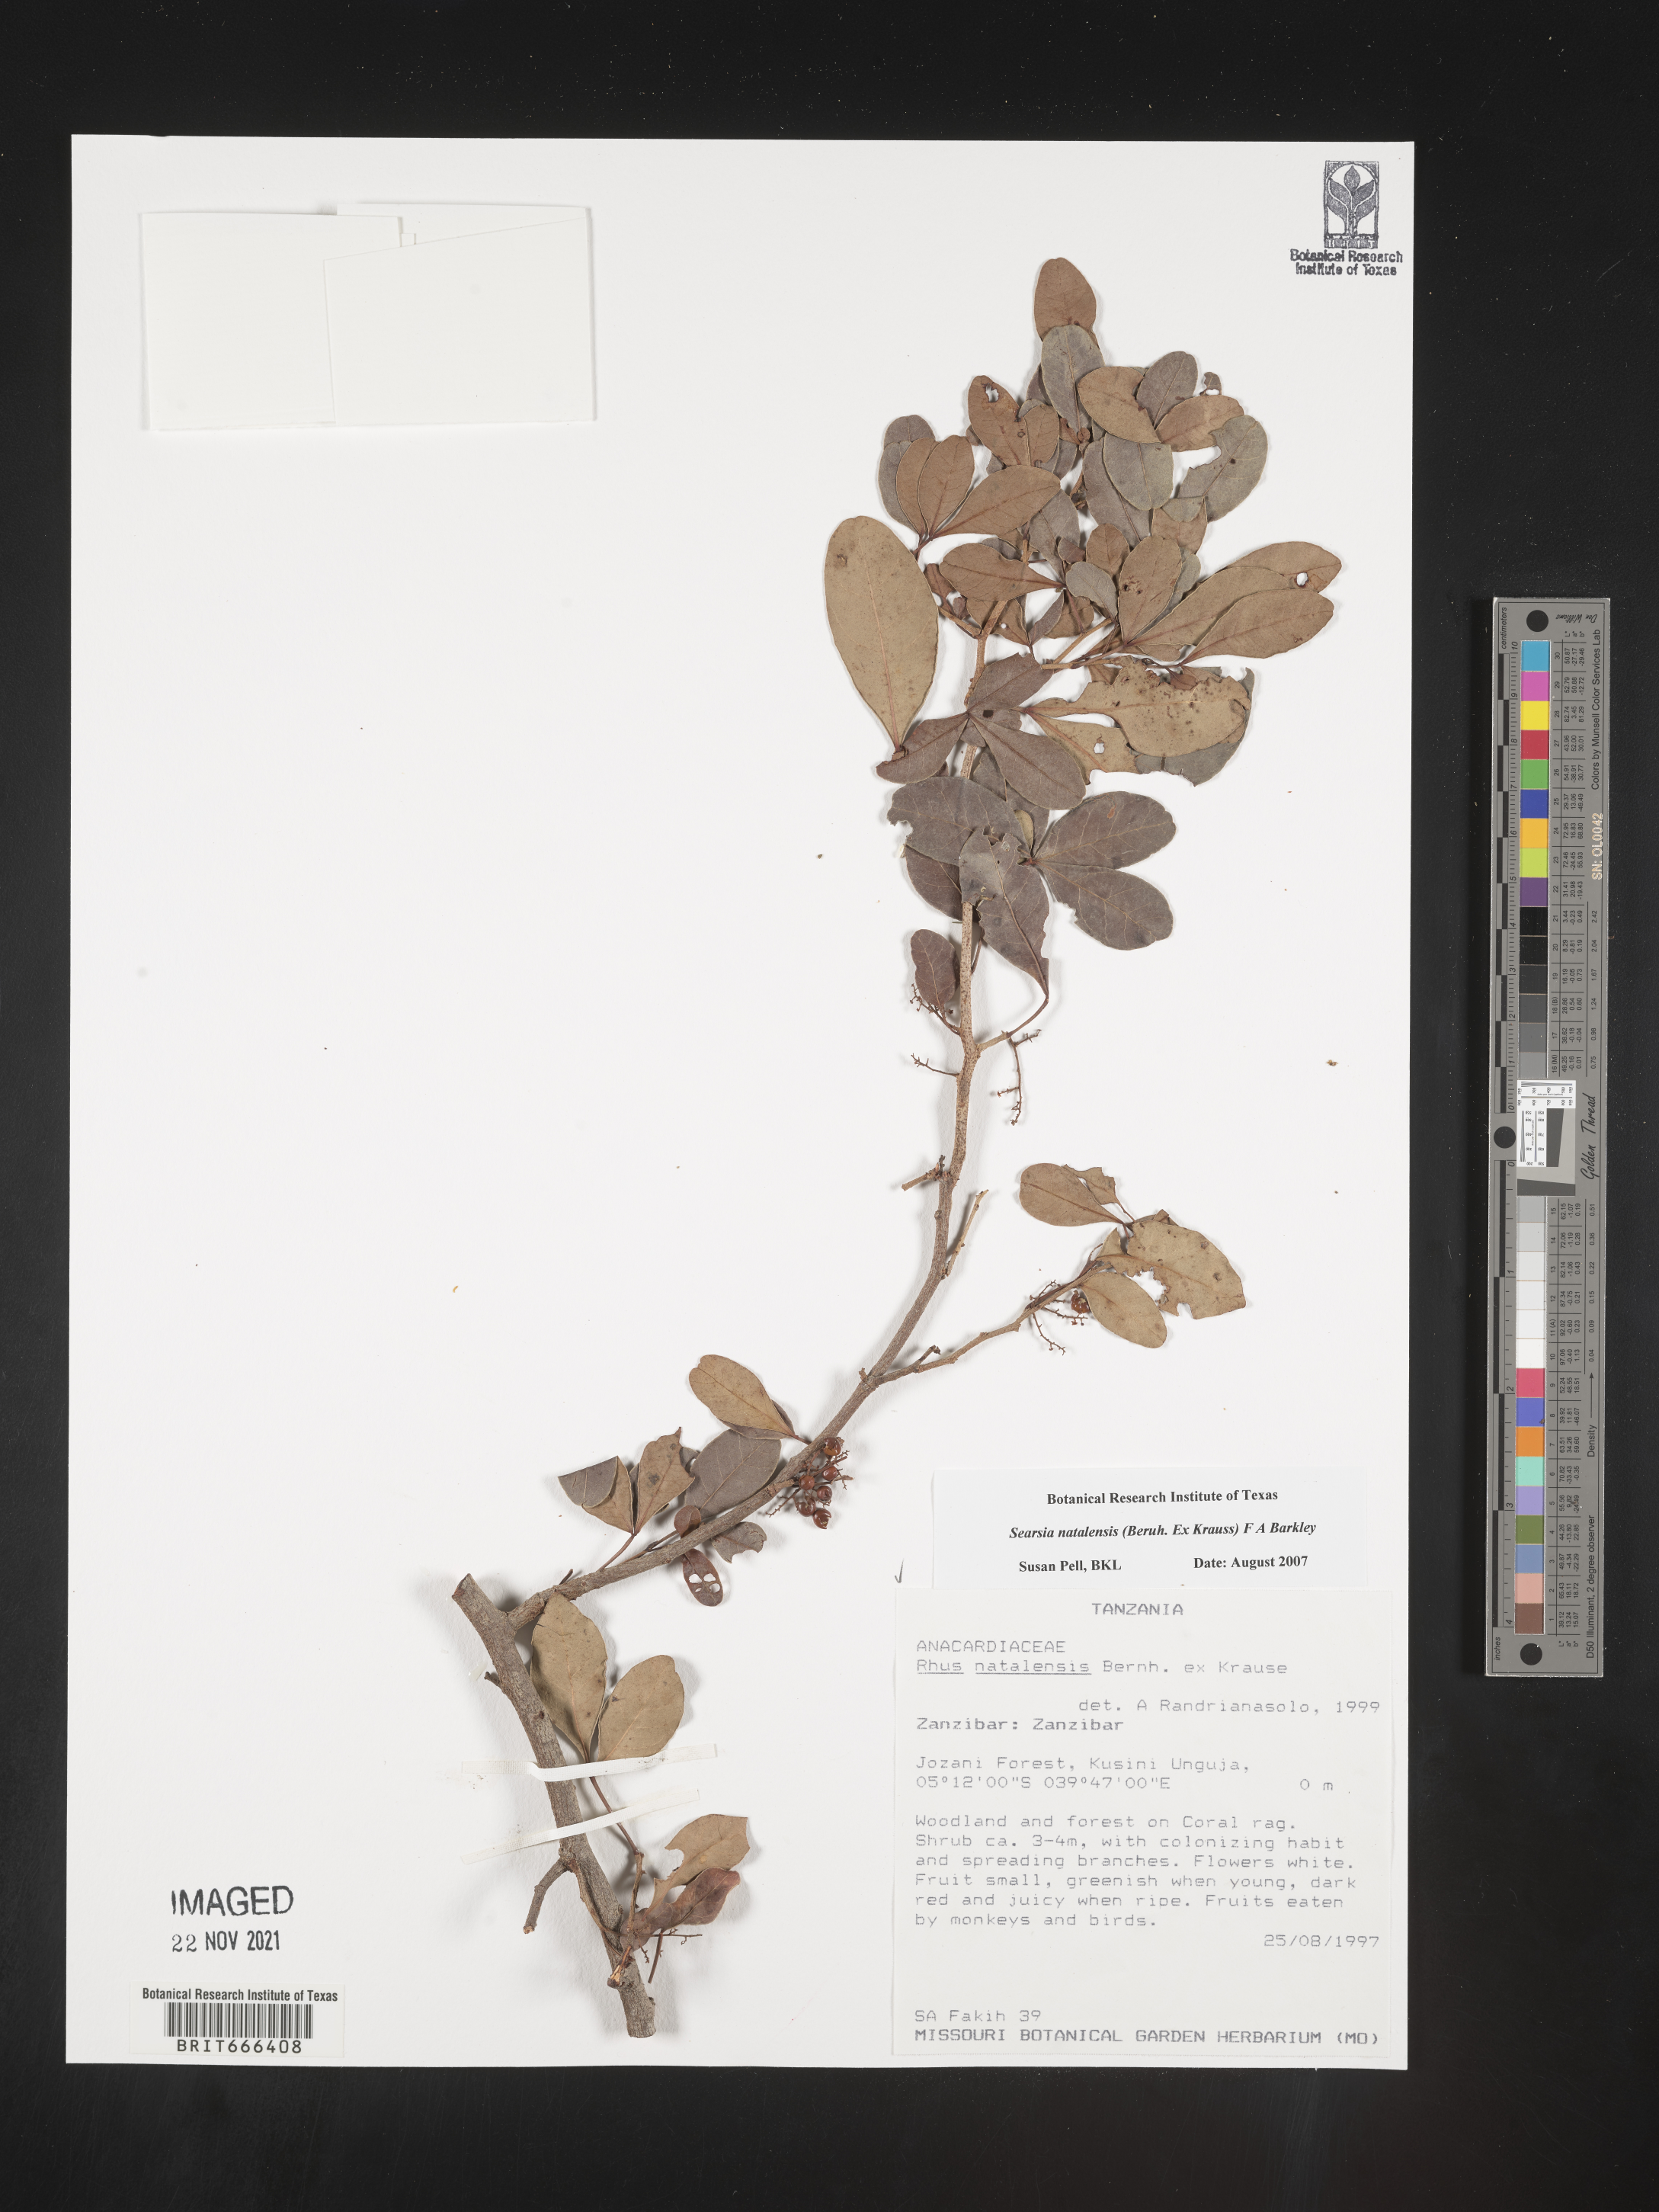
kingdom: Plantae
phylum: Tracheophyta
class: Magnoliopsida
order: Sapindales
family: Anacardiaceae
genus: Searsia
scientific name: Searsia natalensis
